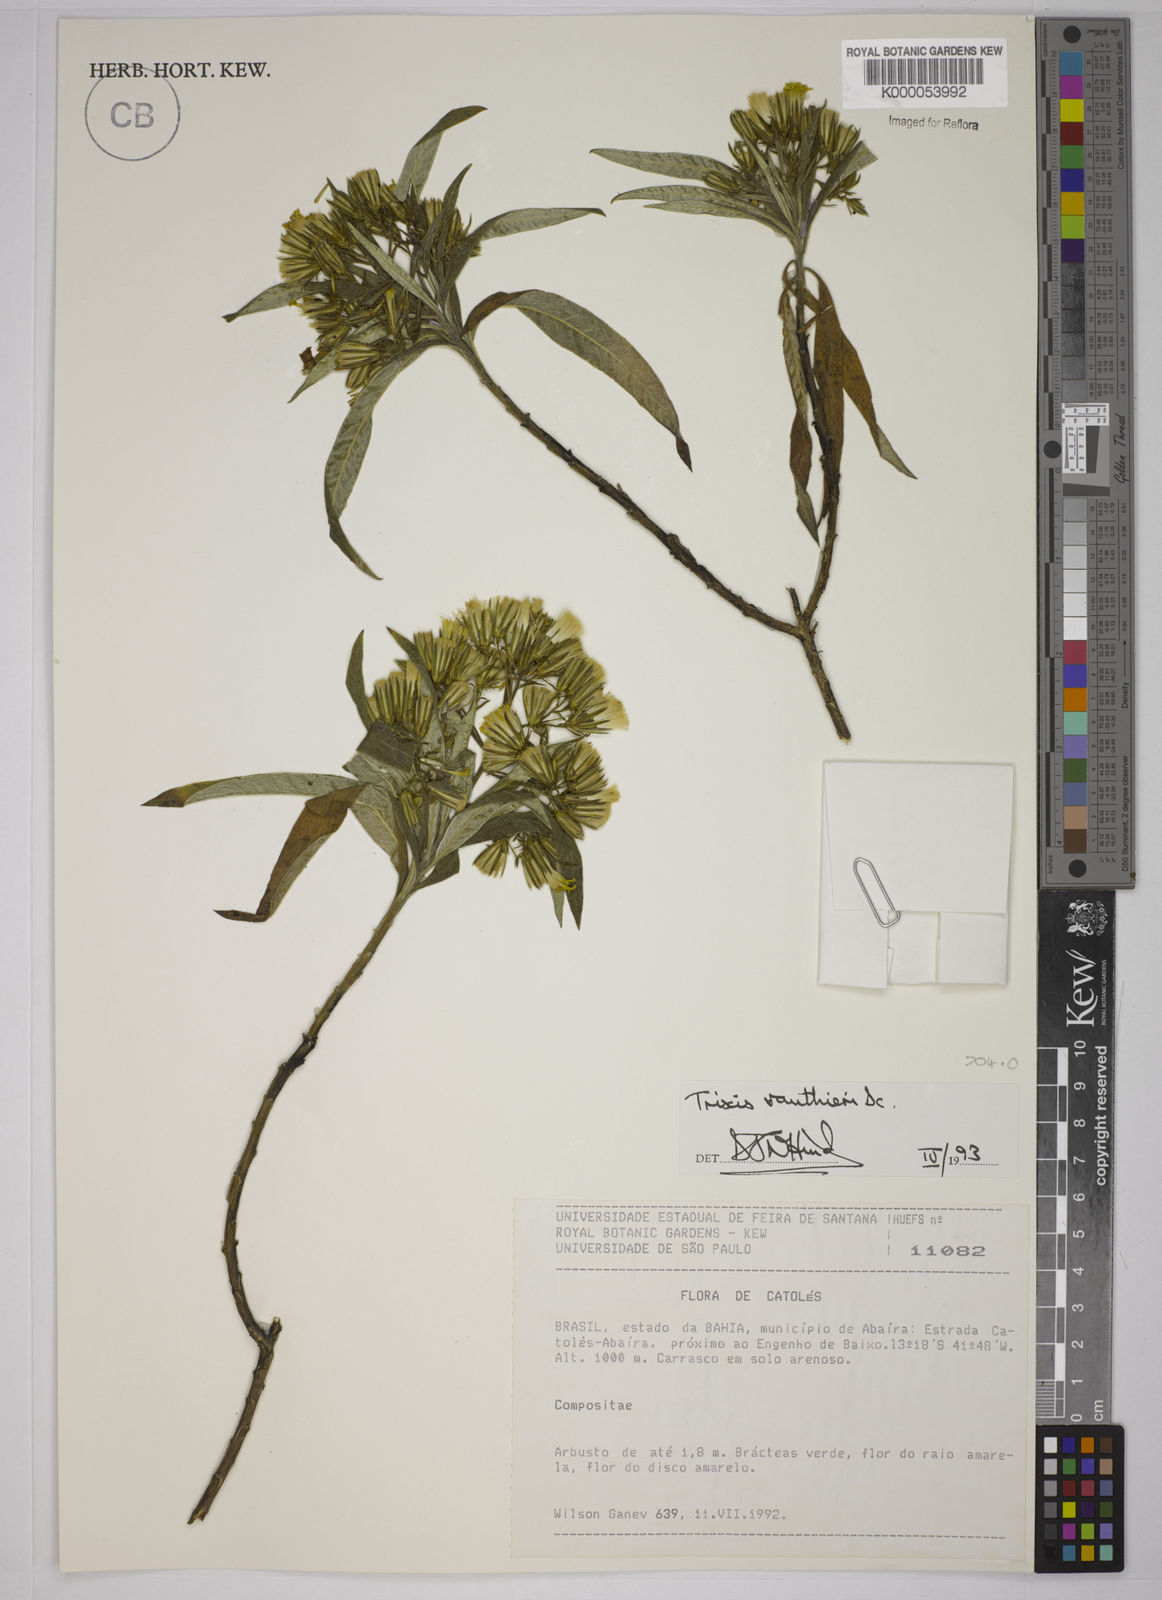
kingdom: Plantae
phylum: Tracheophyta
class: Magnoliopsida
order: Asterales
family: Asteraceae
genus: Trixis
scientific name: Trixis vauthieri
